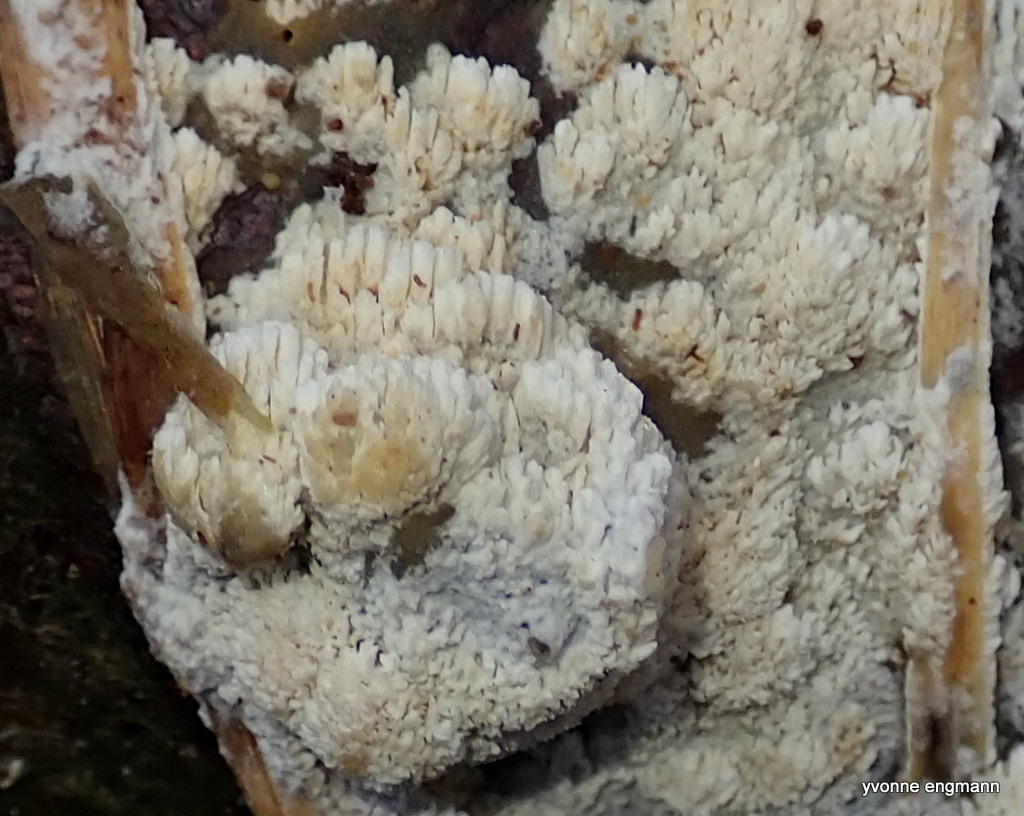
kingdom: Fungi
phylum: Basidiomycota
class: Agaricomycetes
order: Hymenochaetales
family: Schizoporaceae
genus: Schizopora
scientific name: Schizopora paradoxa
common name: hvid tandsvamp
